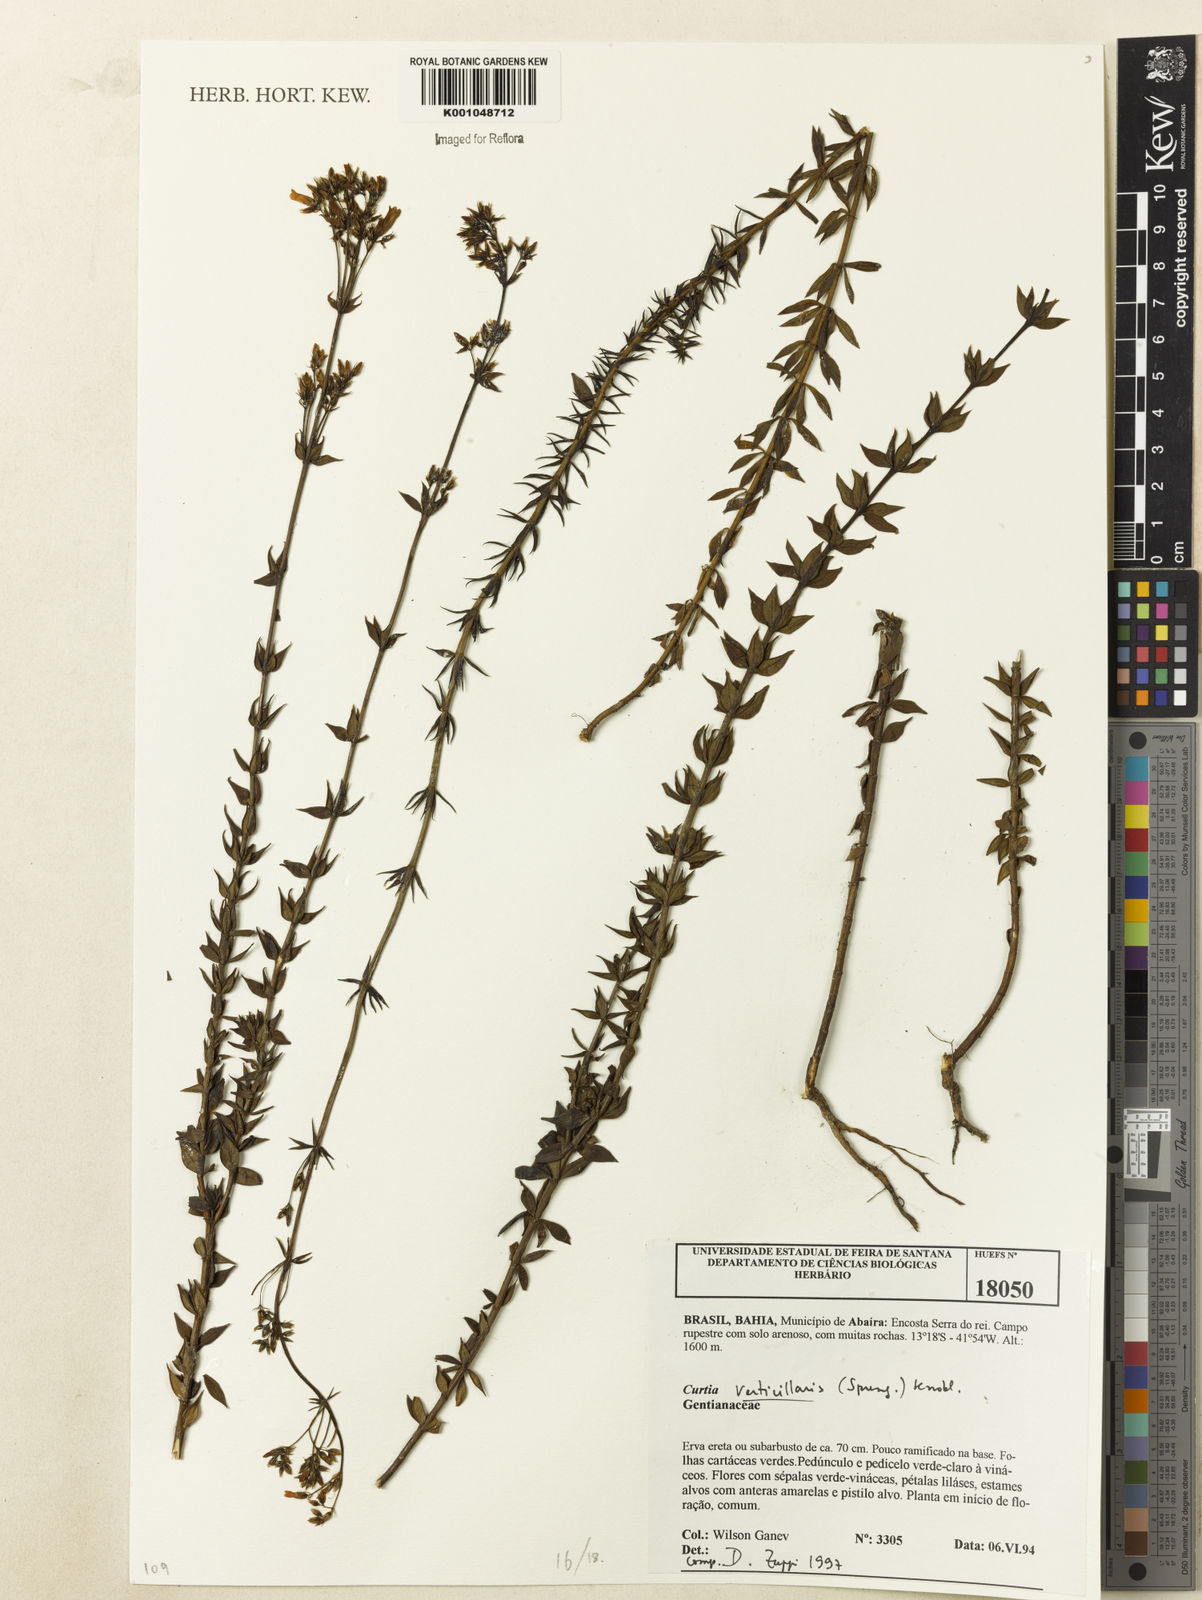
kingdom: Plantae
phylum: Tracheophyta
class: Magnoliopsida
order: Gentianales
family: Gentianaceae
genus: Curtia
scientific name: Curtia verticillaris
